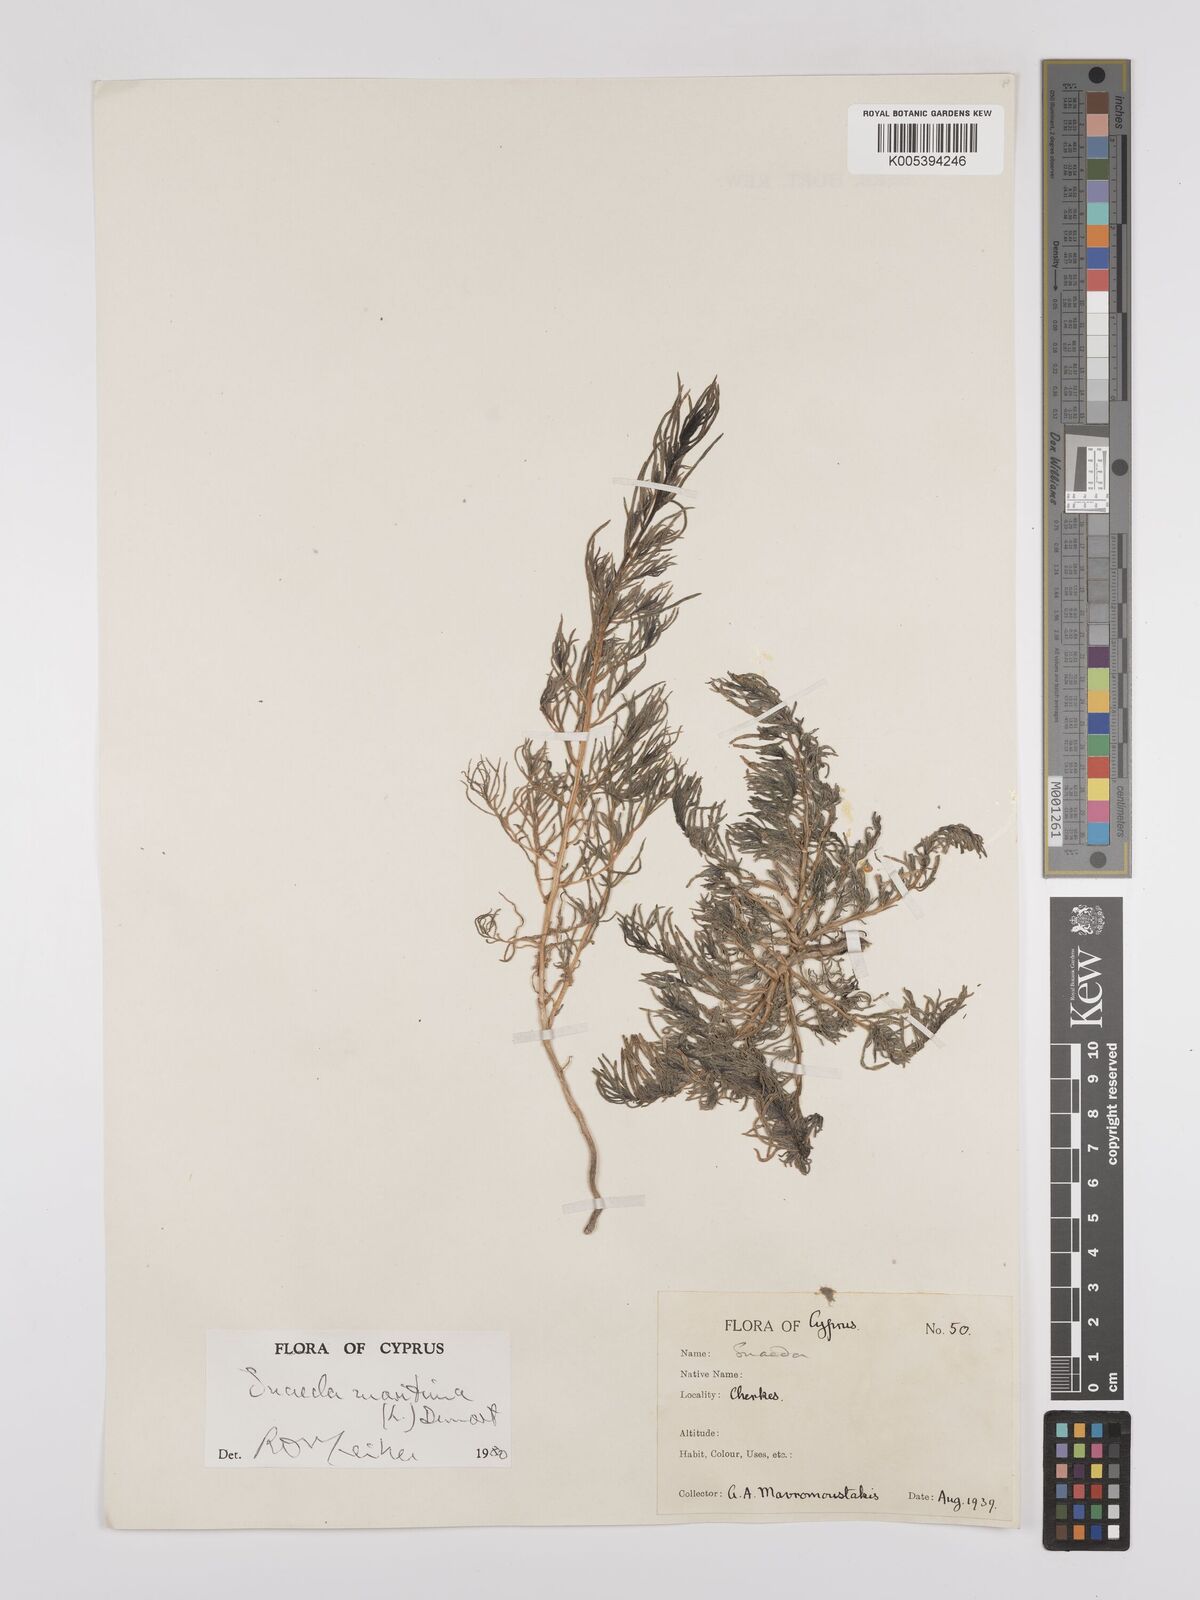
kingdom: Plantae
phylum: Tracheophyta
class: Magnoliopsida
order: Caryophyllales
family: Amaranthaceae
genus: Suaeda
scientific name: Suaeda
